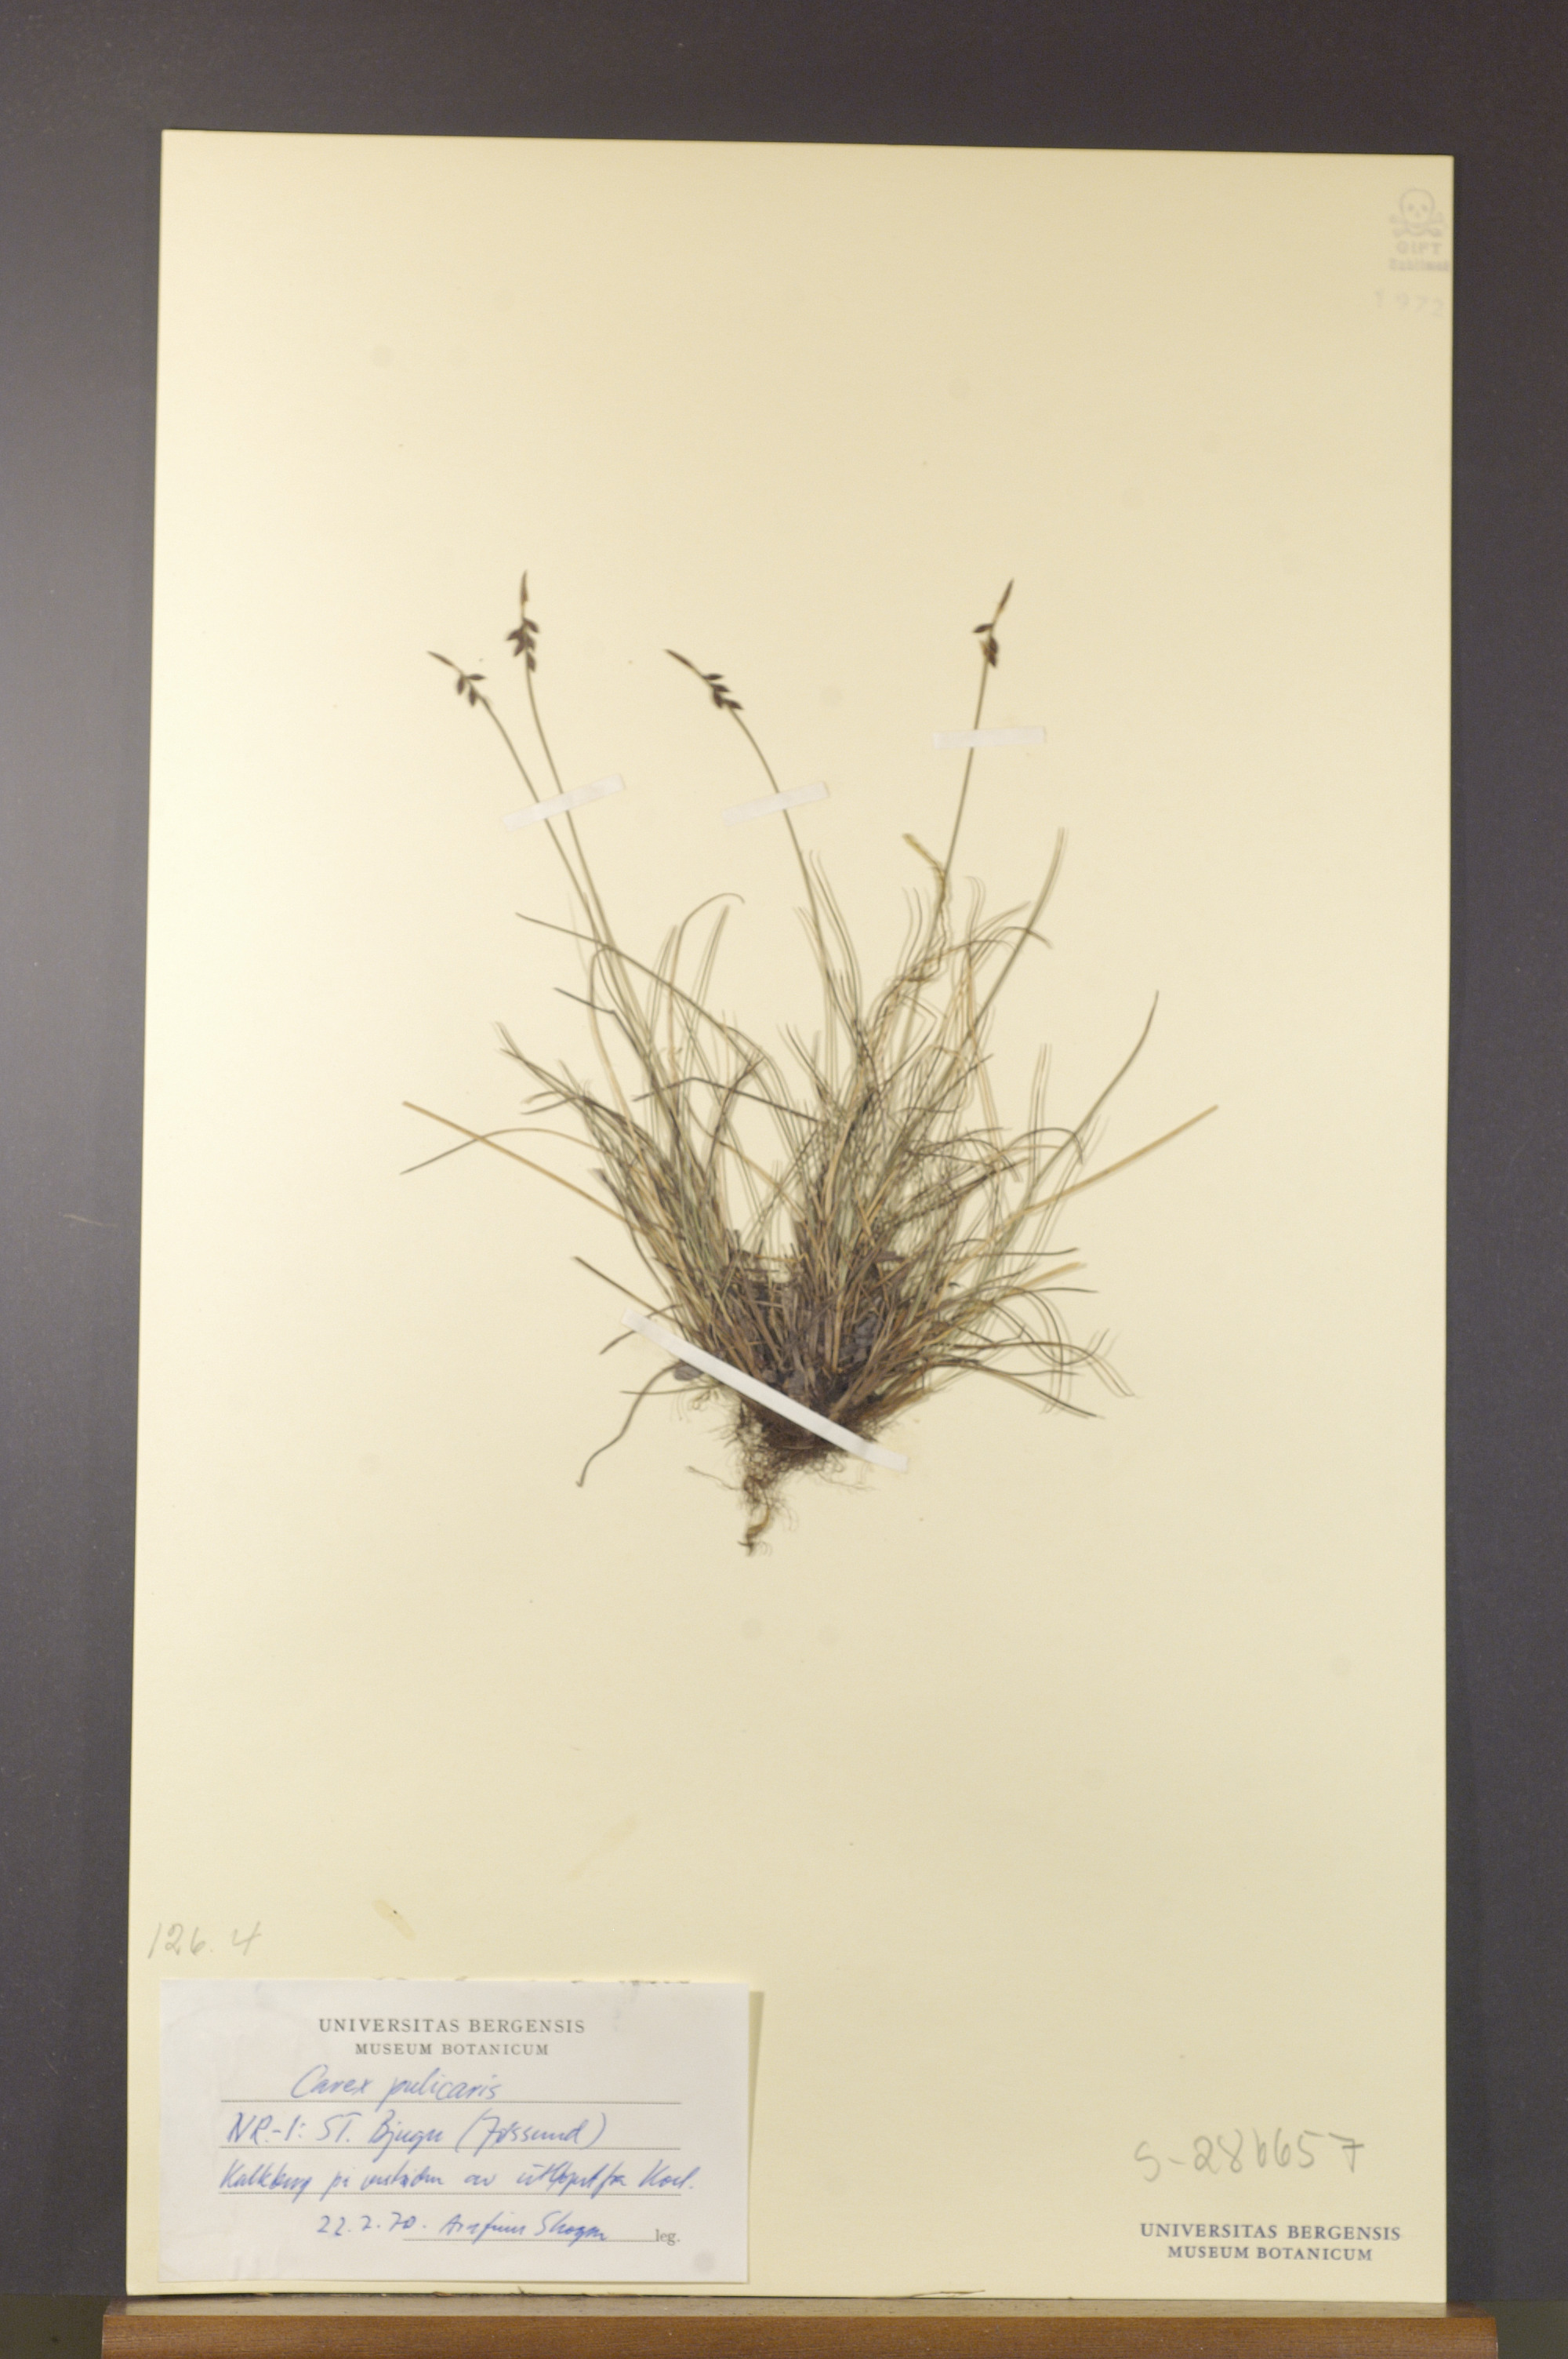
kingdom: Plantae
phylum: Tracheophyta
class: Liliopsida
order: Poales
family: Cyperaceae
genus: Carex
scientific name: Carex pulicaris
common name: Flea sedge
